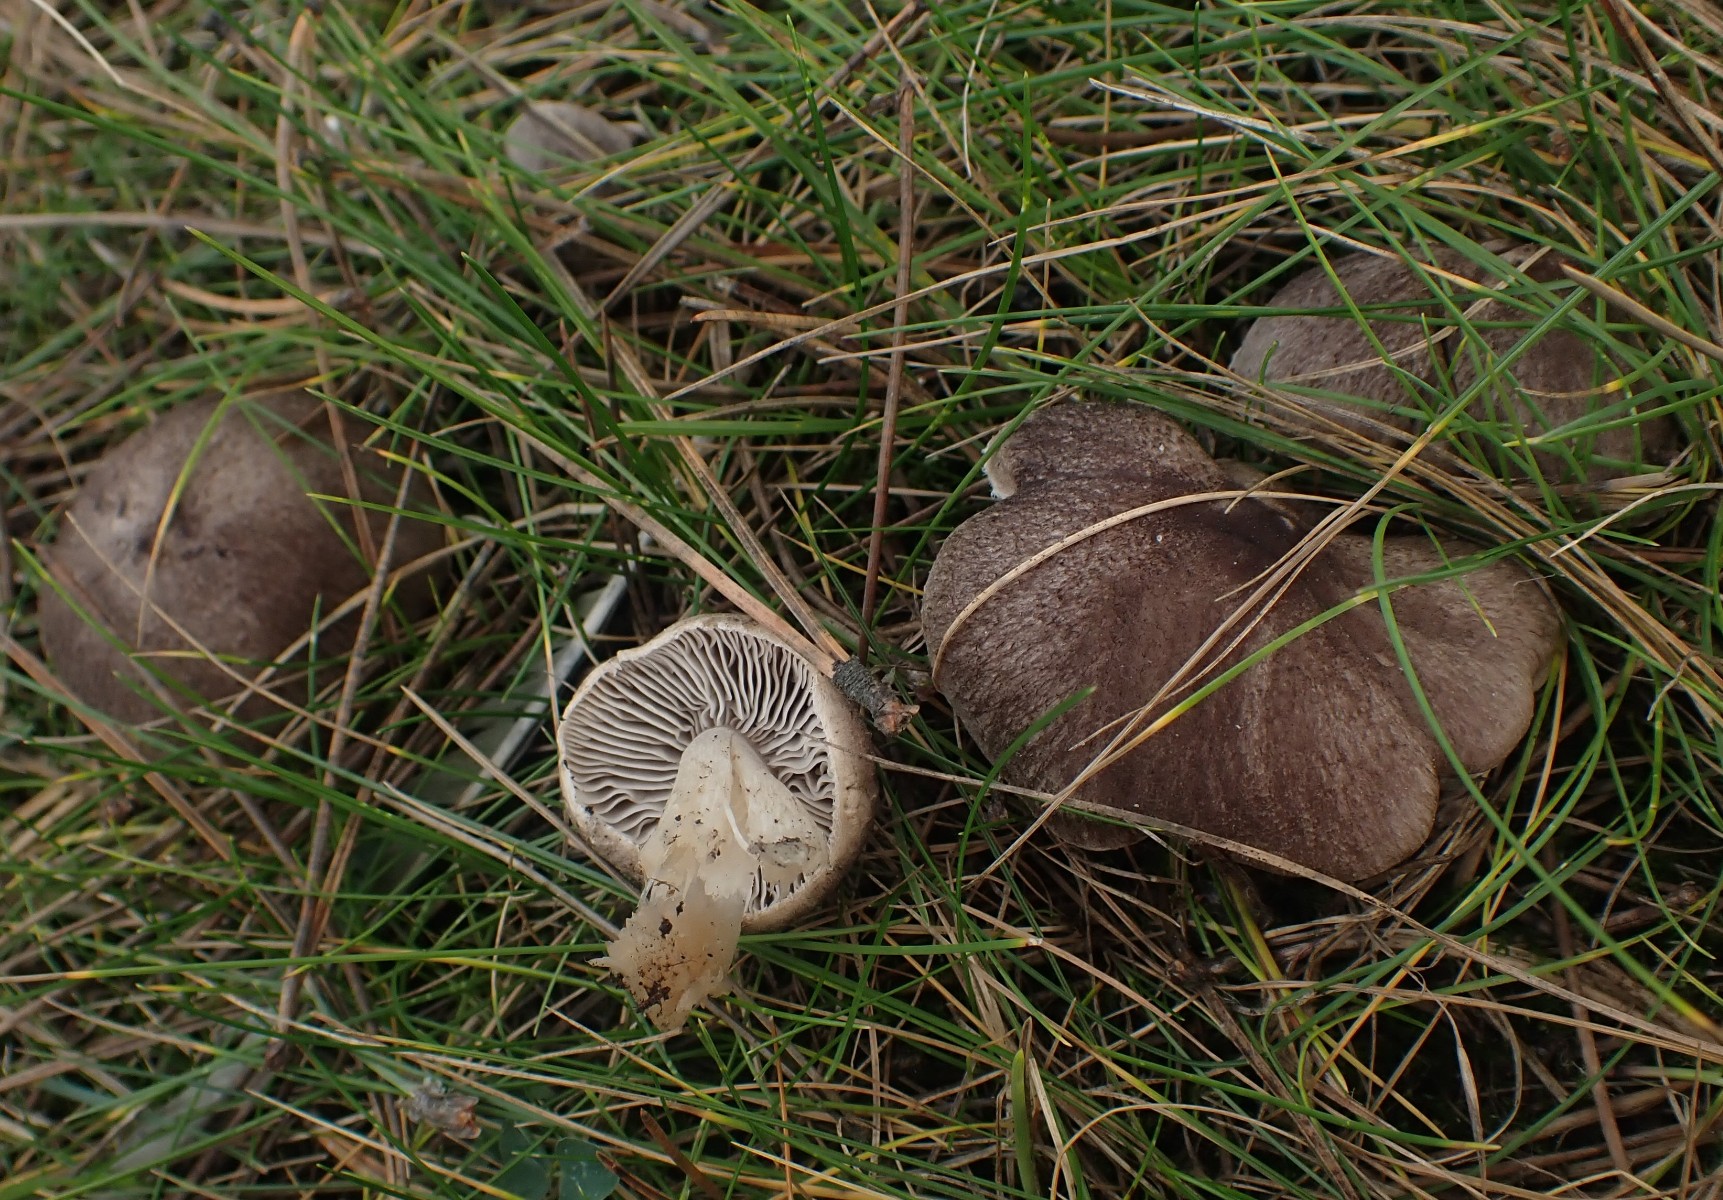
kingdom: Fungi
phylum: Basidiomycota
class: Agaricomycetes
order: Agaricales
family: Tricholomataceae
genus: Tricholoma
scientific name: Tricholoma terreum
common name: jordfarvet ridderhat
